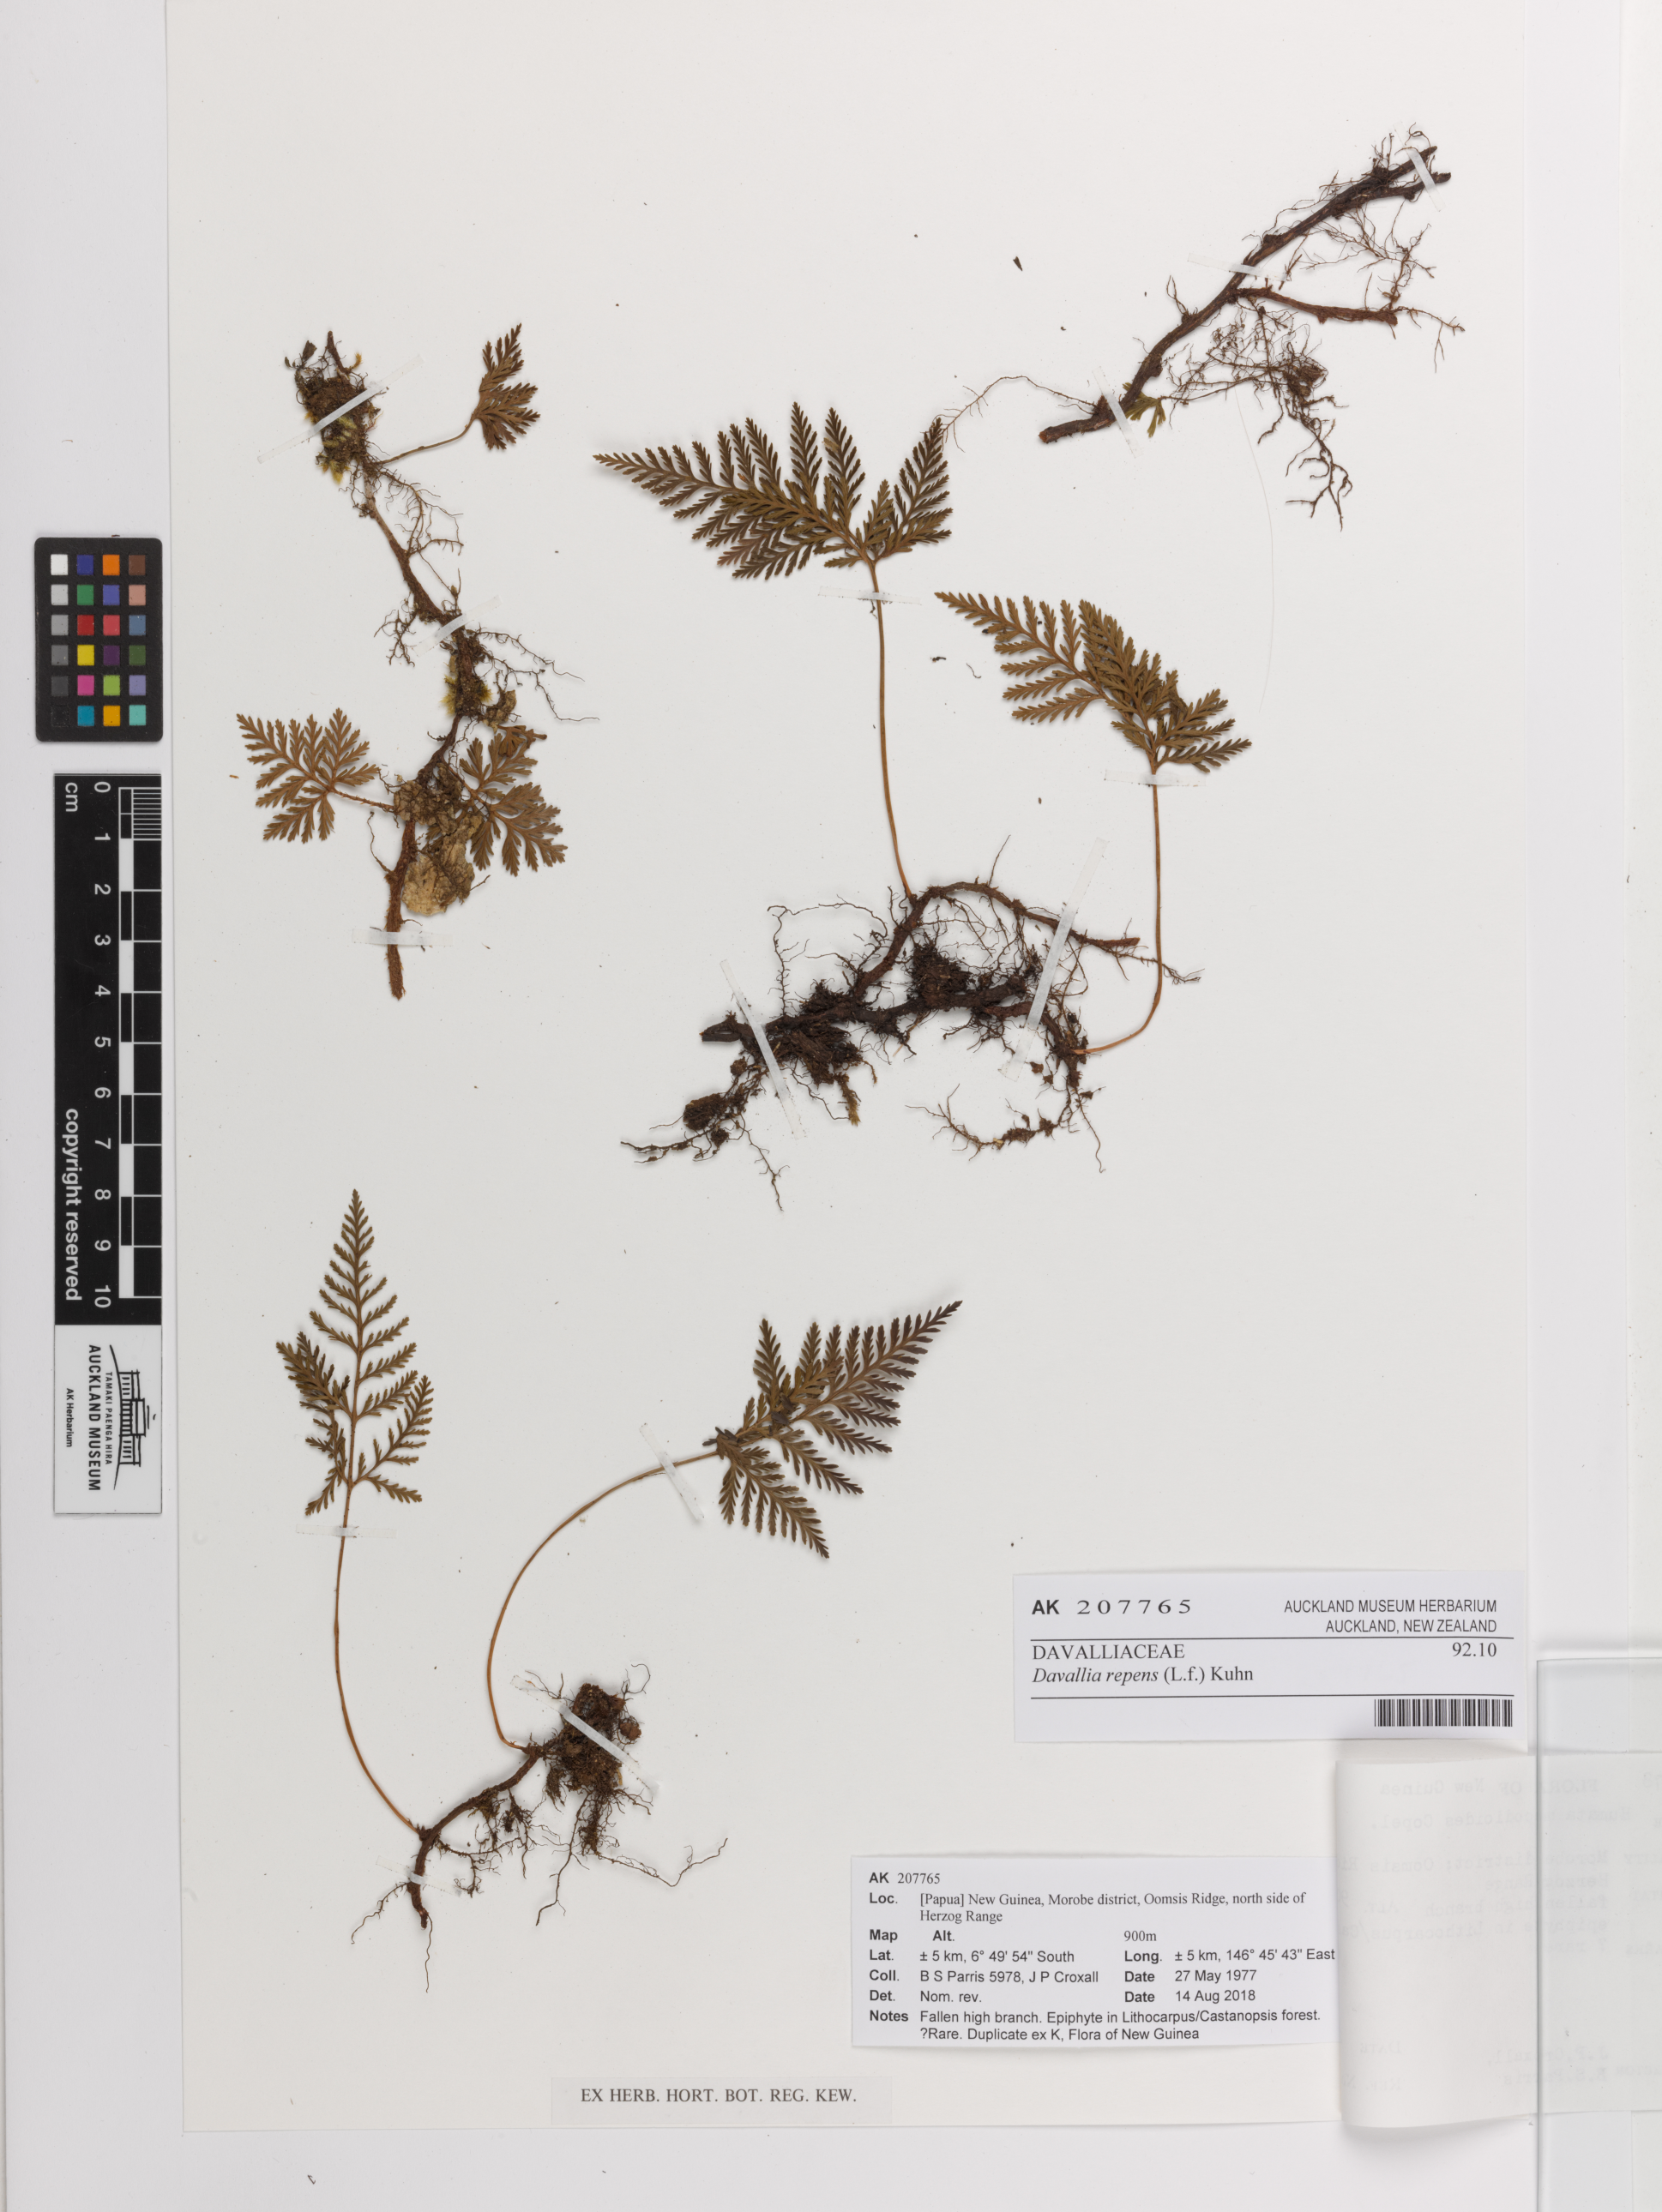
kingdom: Plantae
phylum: Tracheophyta
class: Polypodiopsida
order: Polypodiales
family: Davalliaceae
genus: Davallia
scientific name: Davallia repens
